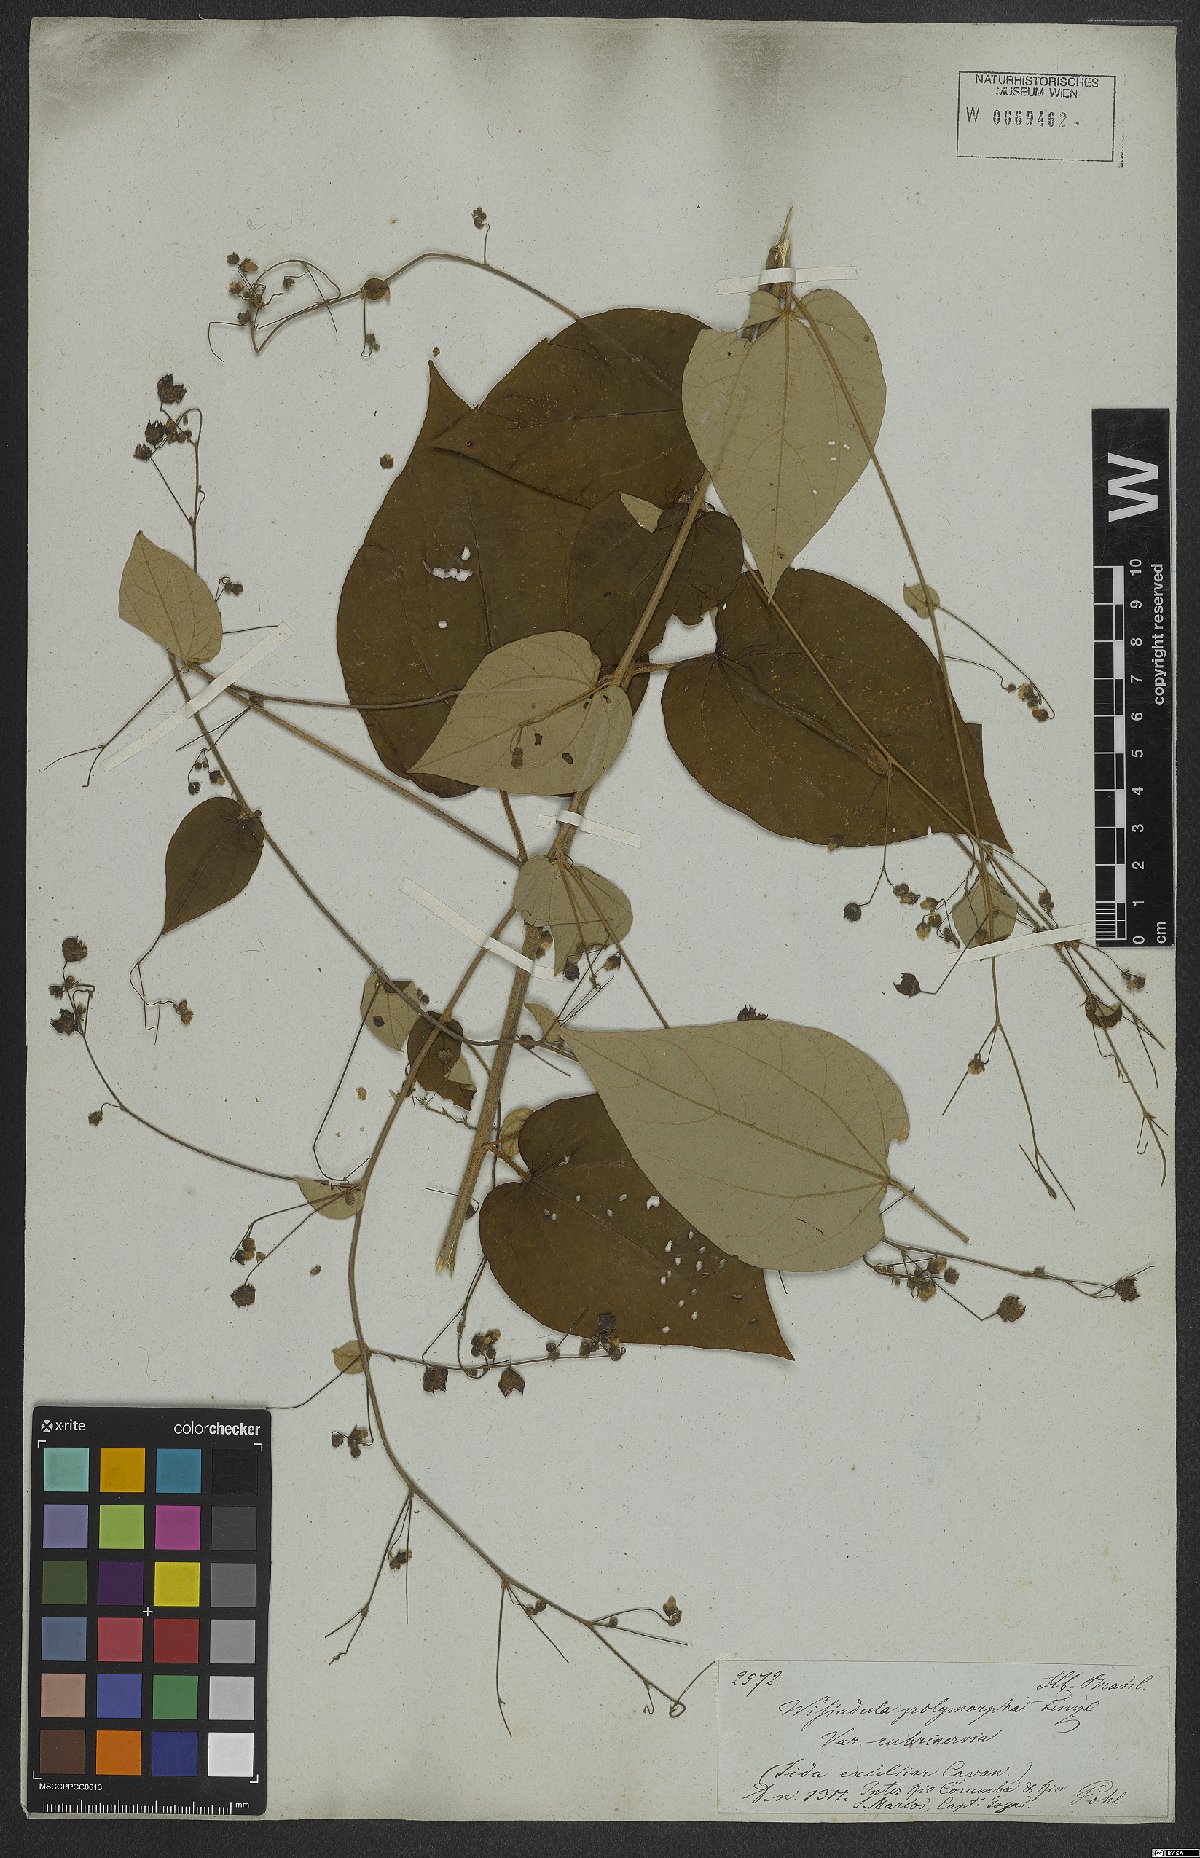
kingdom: Plantae
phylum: Tracheophyta
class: Magnoliopsida
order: Malvales
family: Malvaceae
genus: Wissadula
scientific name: Wissadula hernandioides
